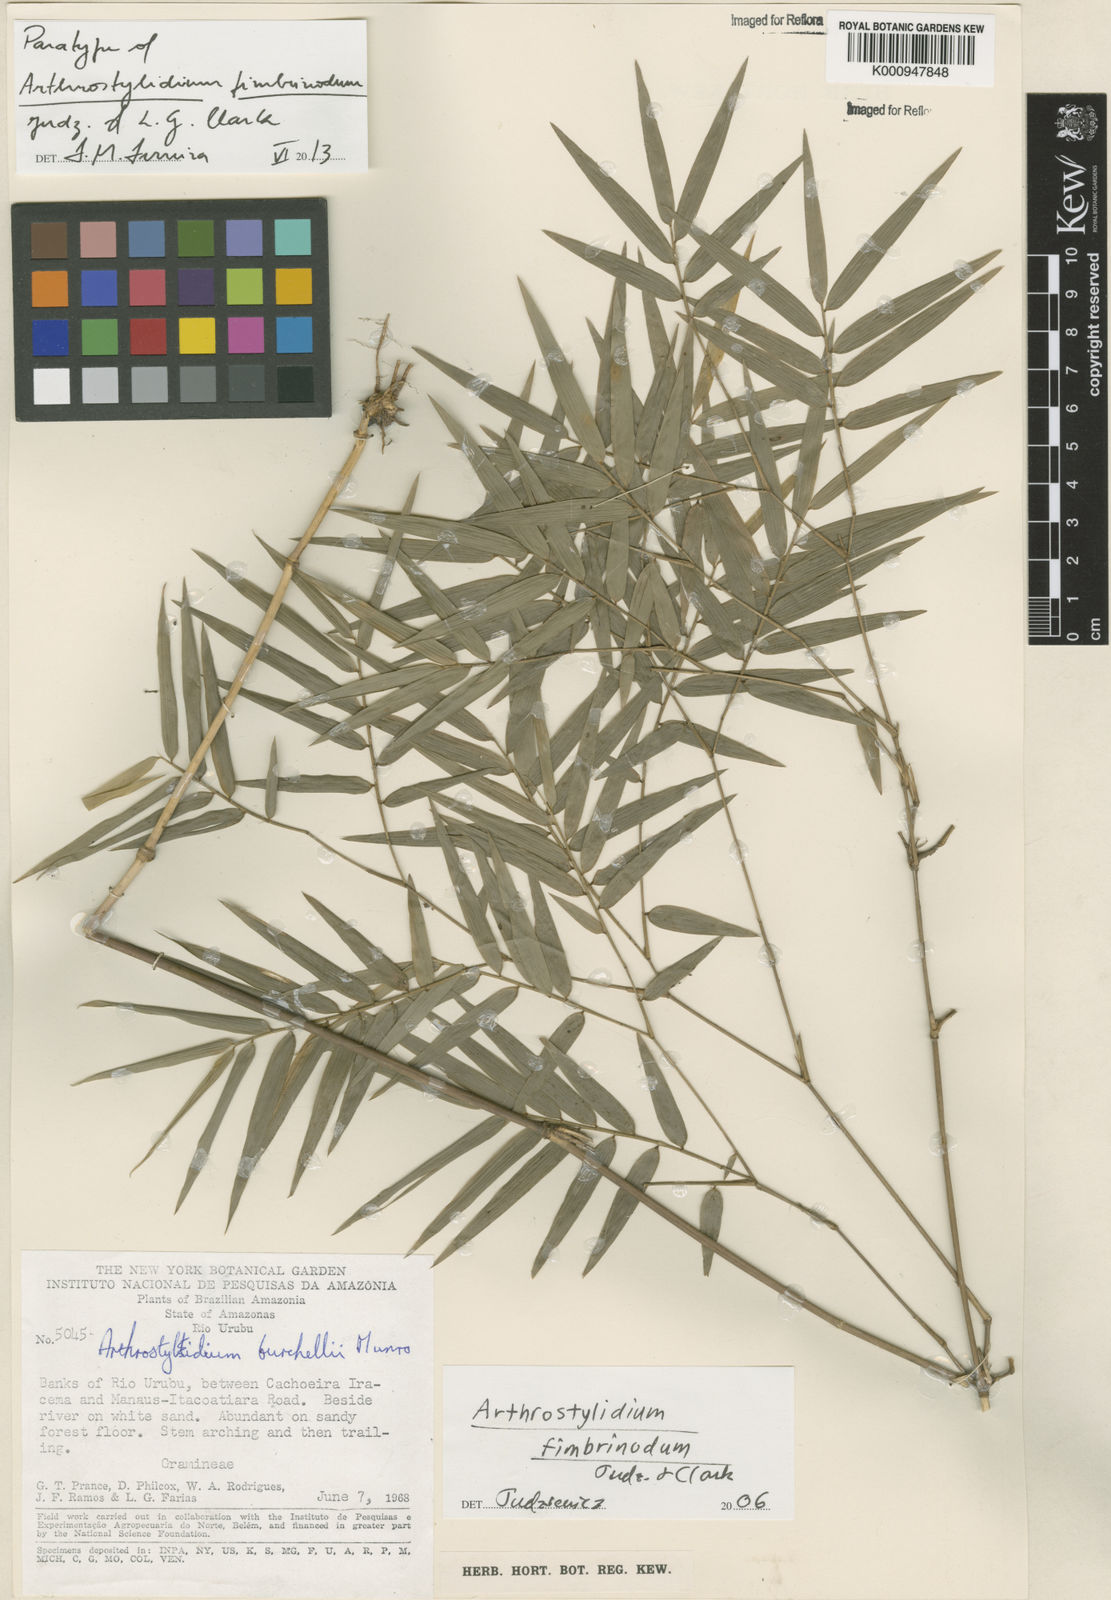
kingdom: Plantae
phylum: Tracheophyta
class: Liliopsida
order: Poales
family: Poaceae
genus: Arthrostylidium
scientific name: Arthrostylidium fimbrinodum
